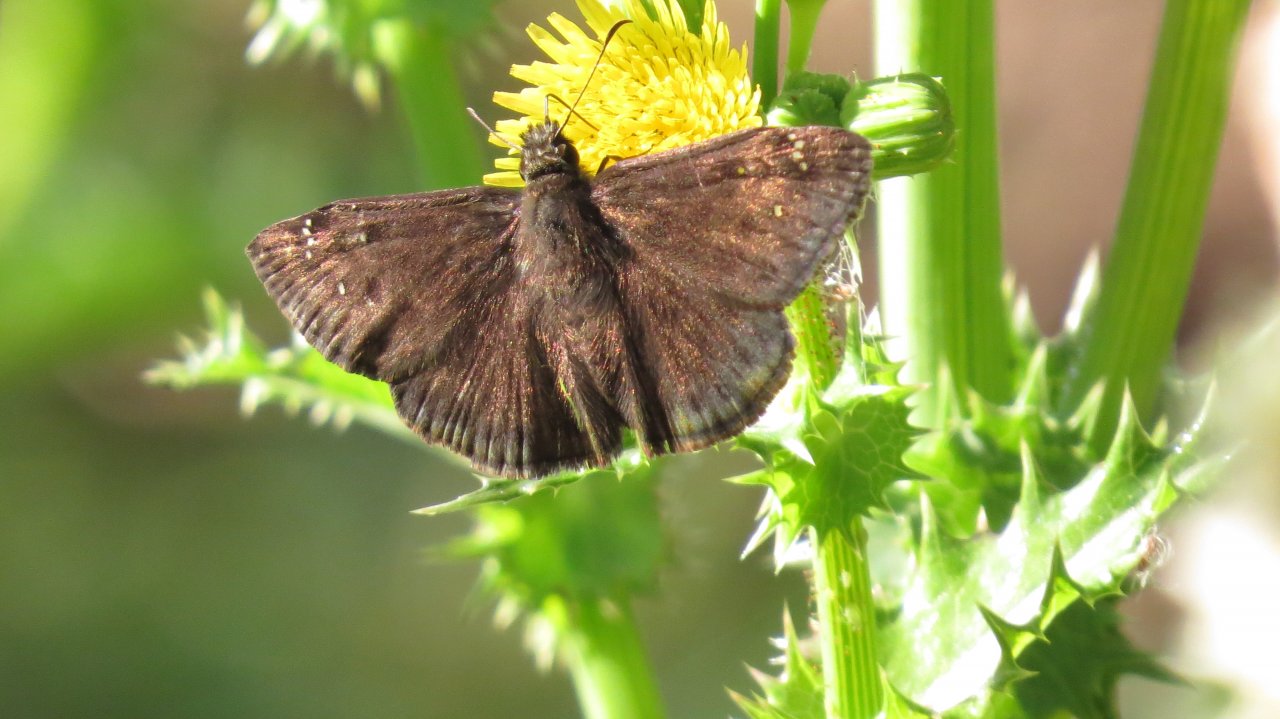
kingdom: Animalia
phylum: Arthropoda
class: Insecta
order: Lepidoptera
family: Hesperiidae
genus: Gesta
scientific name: Gesta
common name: Horace's Duskywing
